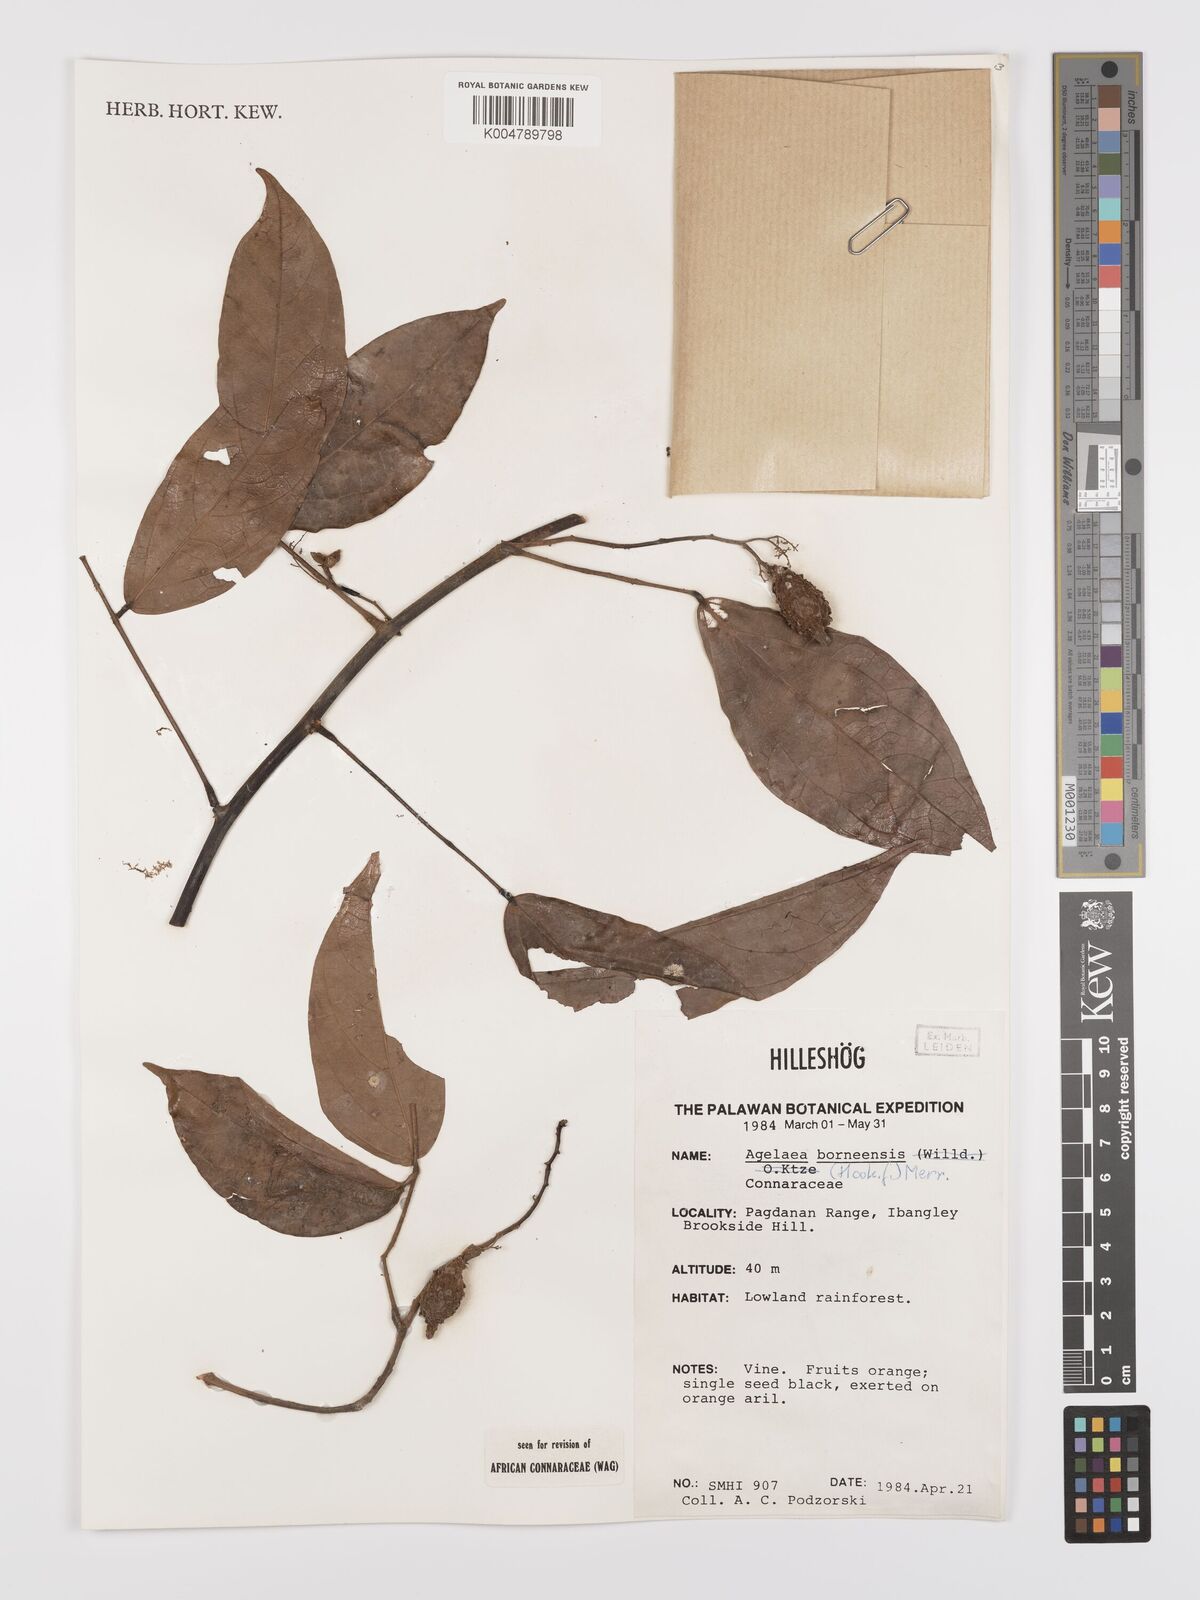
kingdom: Plantae
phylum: Tracheophyta
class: Magnoliopsida
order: Oxalidales
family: Connaraceae
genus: Agelaea
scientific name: Agelaea borneensis
